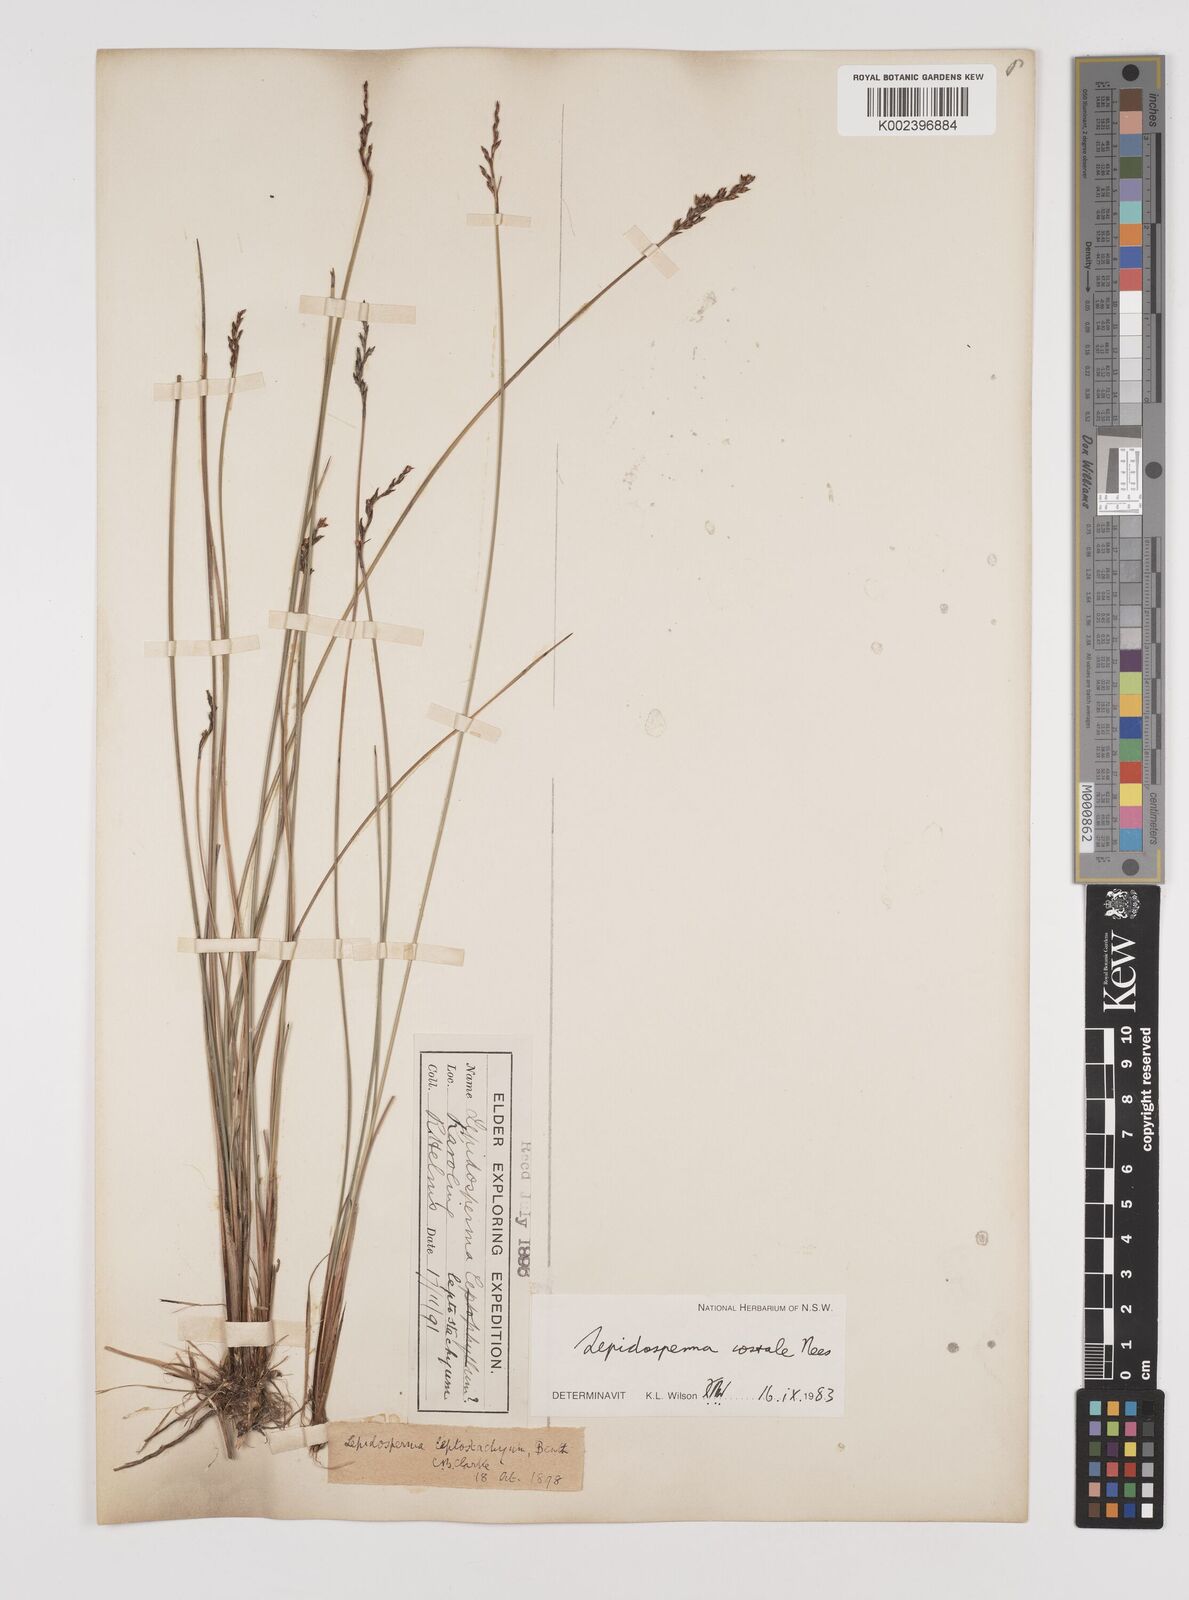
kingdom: Plantae
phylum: Tracheophyta
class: Liliopsida
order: Poales
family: Cyperaceae
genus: Lepidosperma
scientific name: Lepidosperma costale
